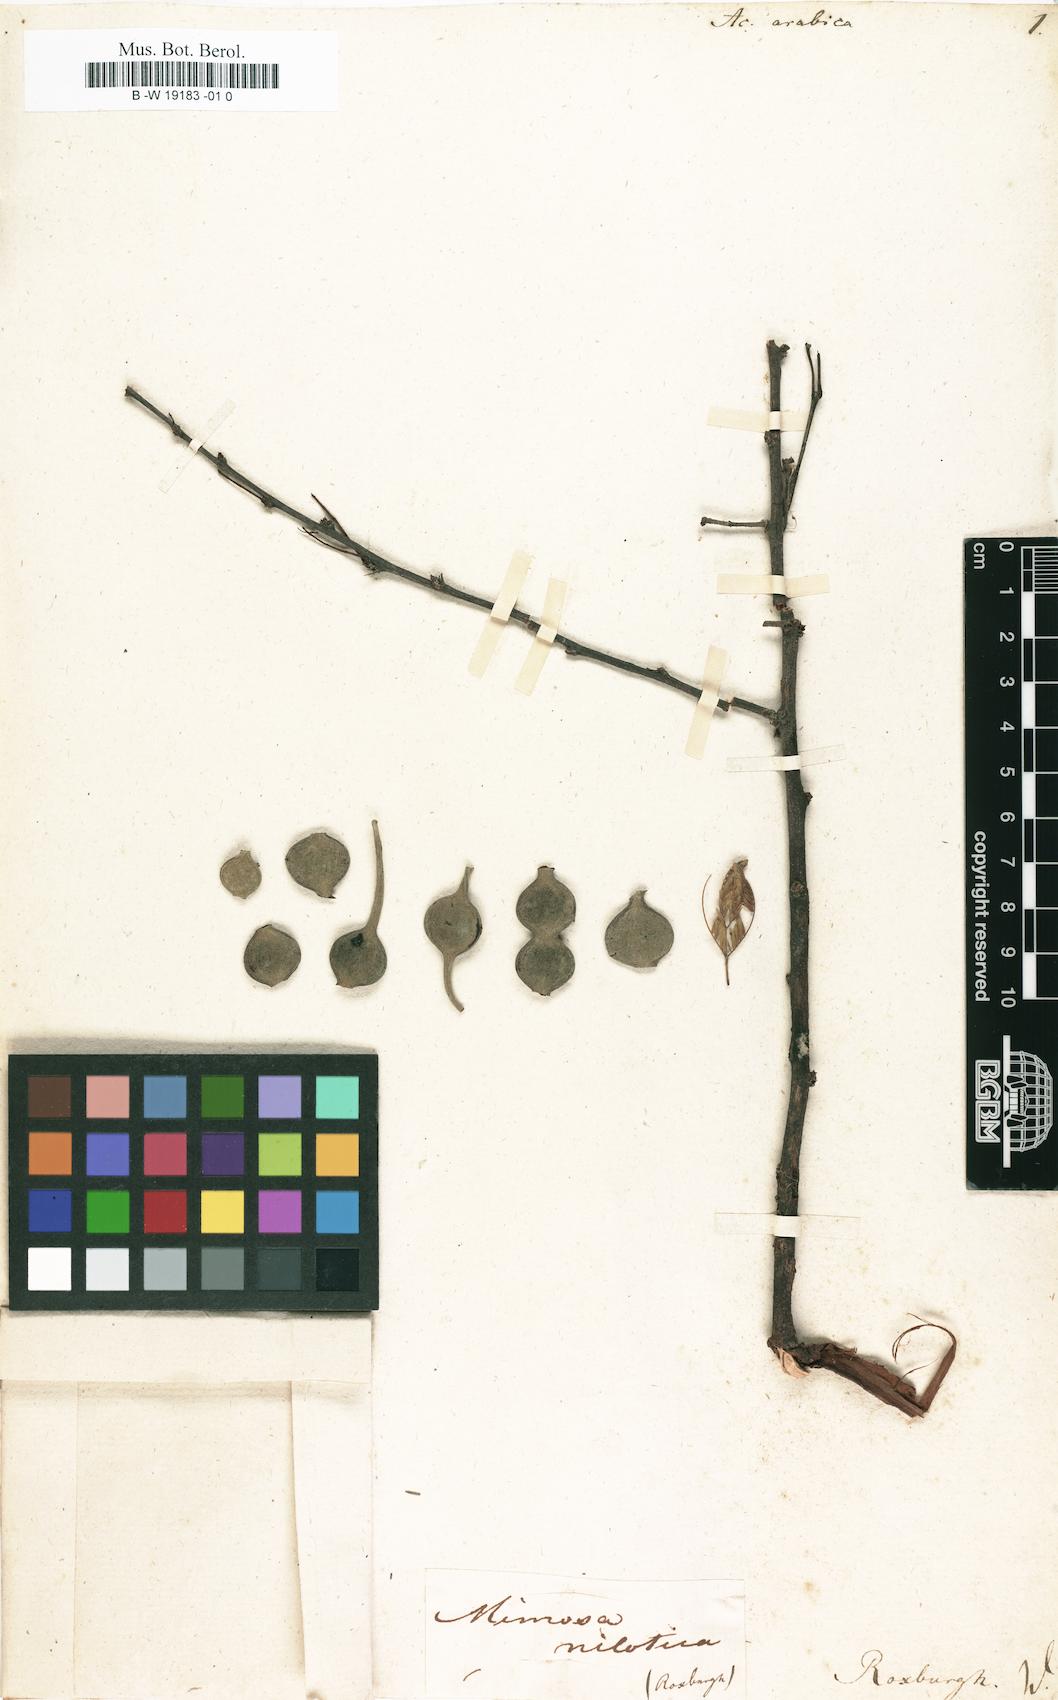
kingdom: Plantae
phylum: Tracheophyta
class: Magnoliopsida
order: Fabales
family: Fabaceae
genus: Vachellia
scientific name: Vachellia nilotica
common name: Arabic gumtree
